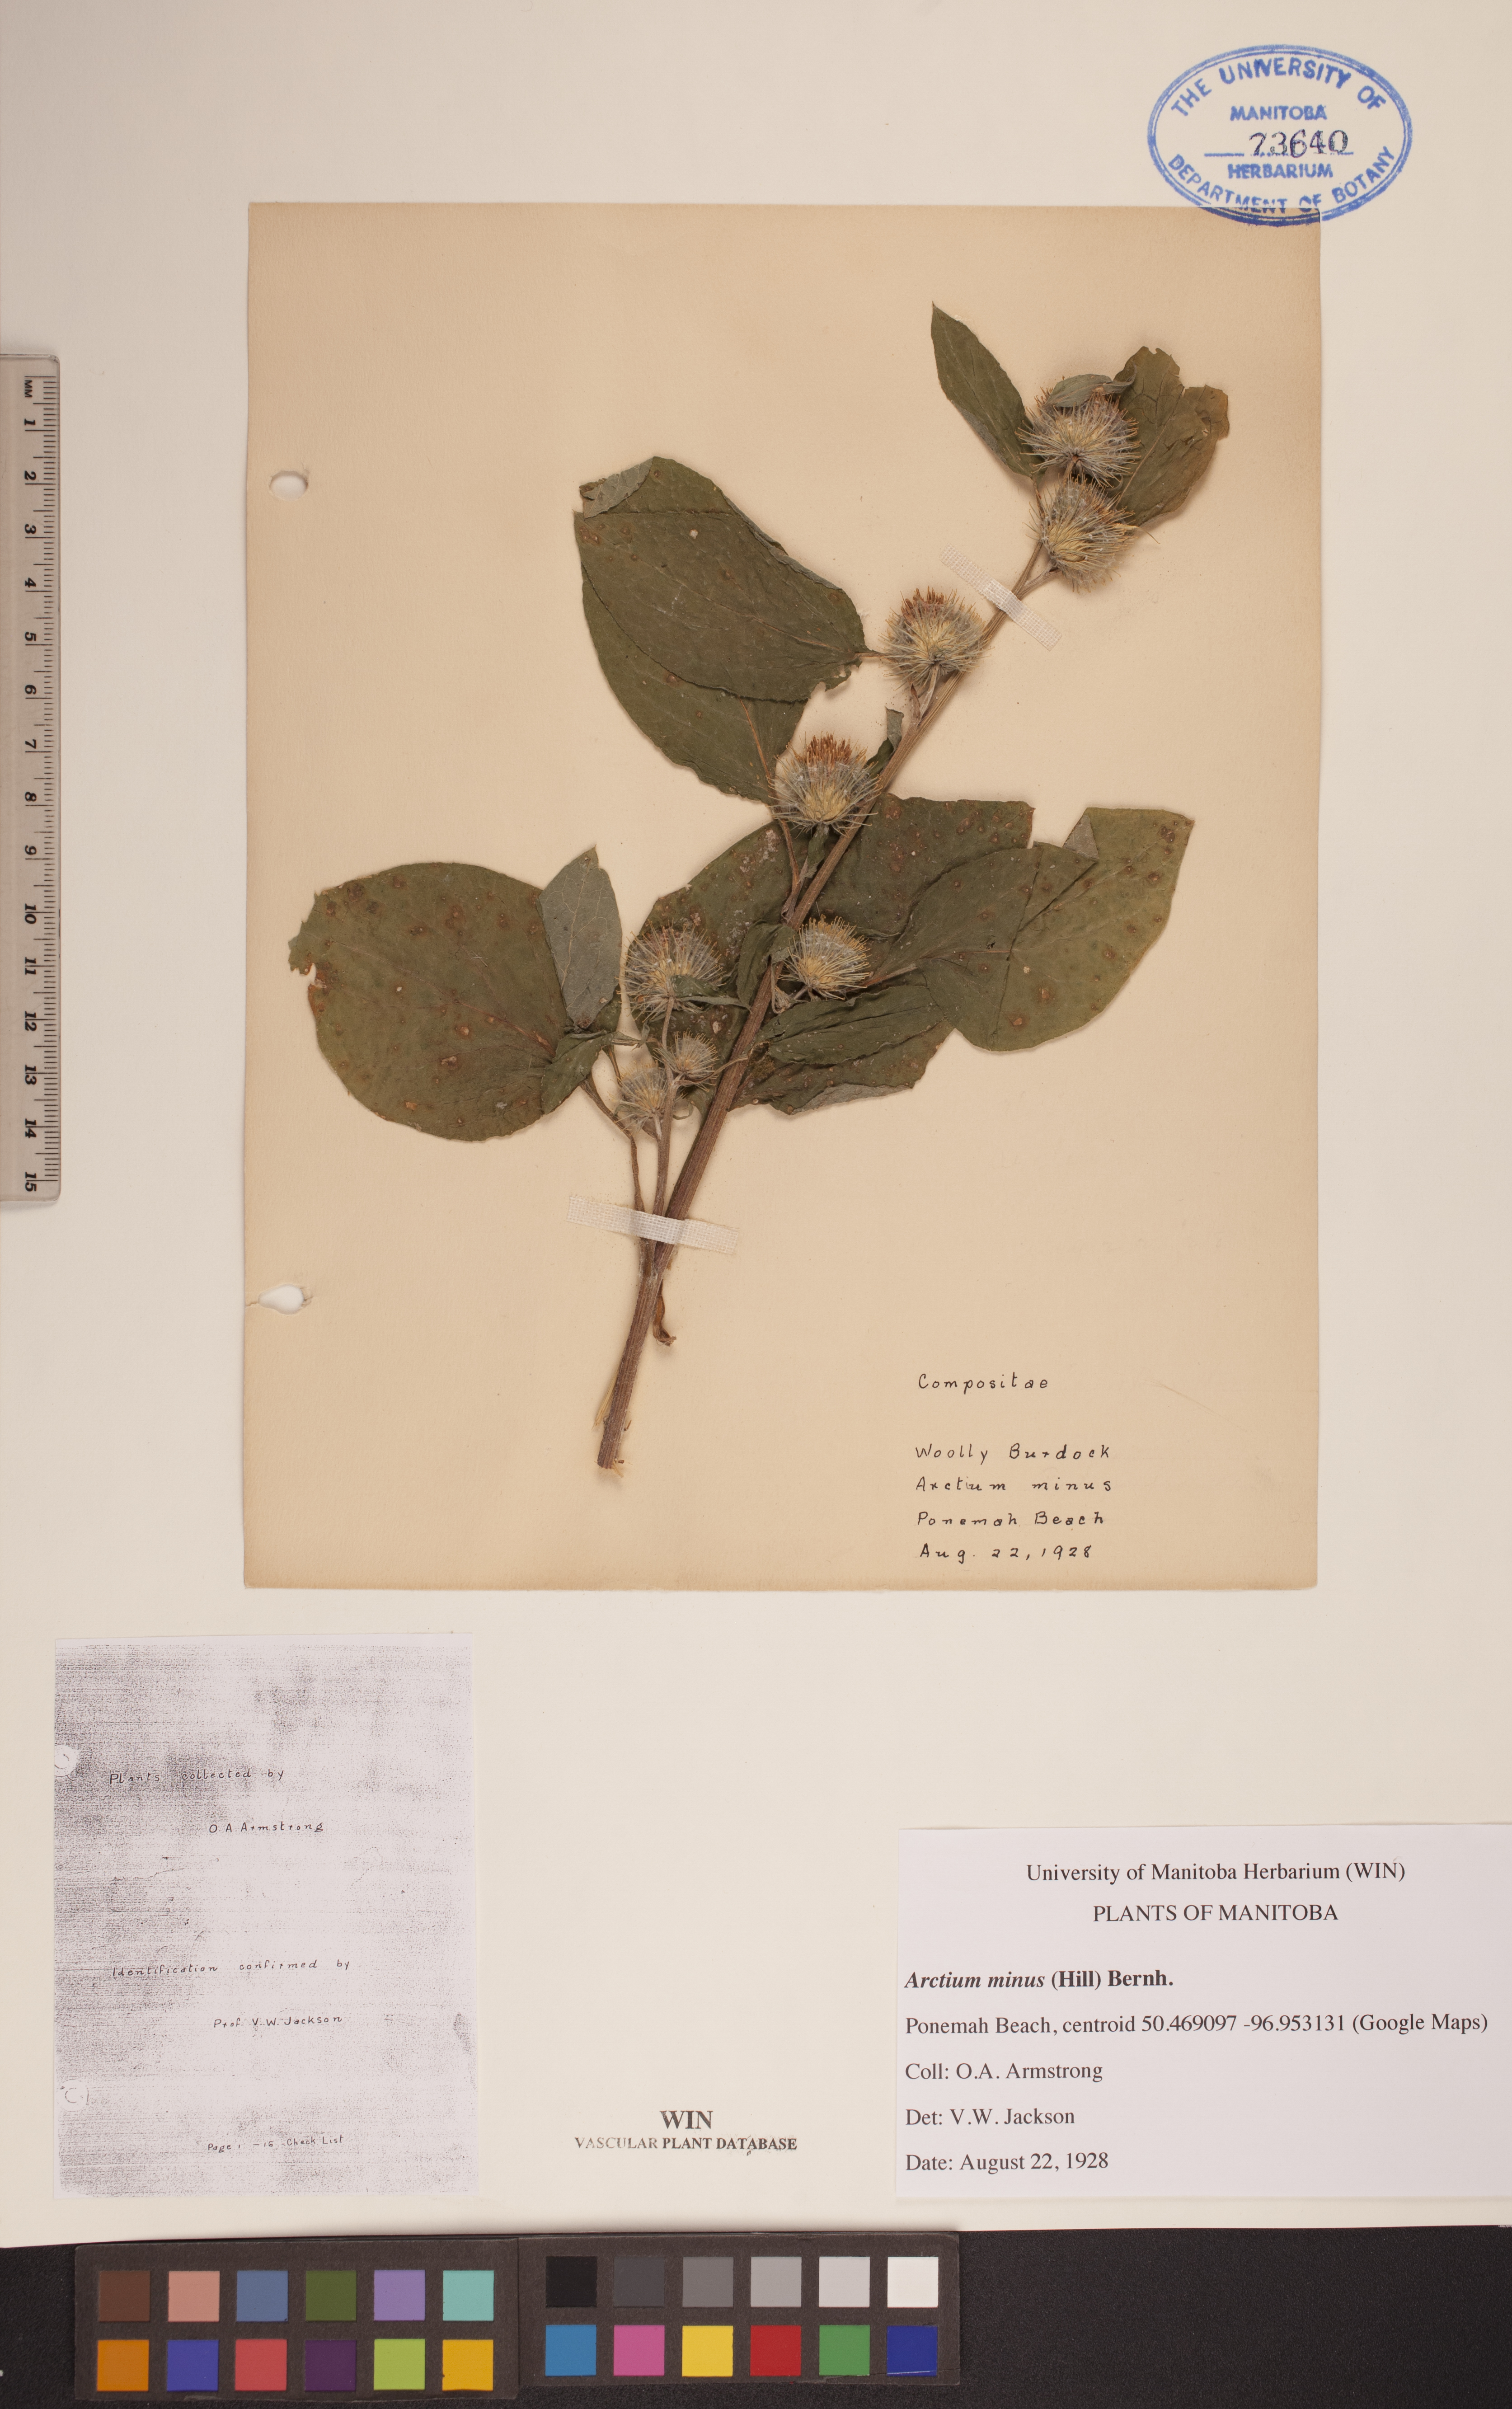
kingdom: Plantae
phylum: Tracheophyta
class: Magnoliopsida
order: Asterales
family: Asteraceae
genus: Arctium
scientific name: Arctium minus
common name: Lesser burdock
